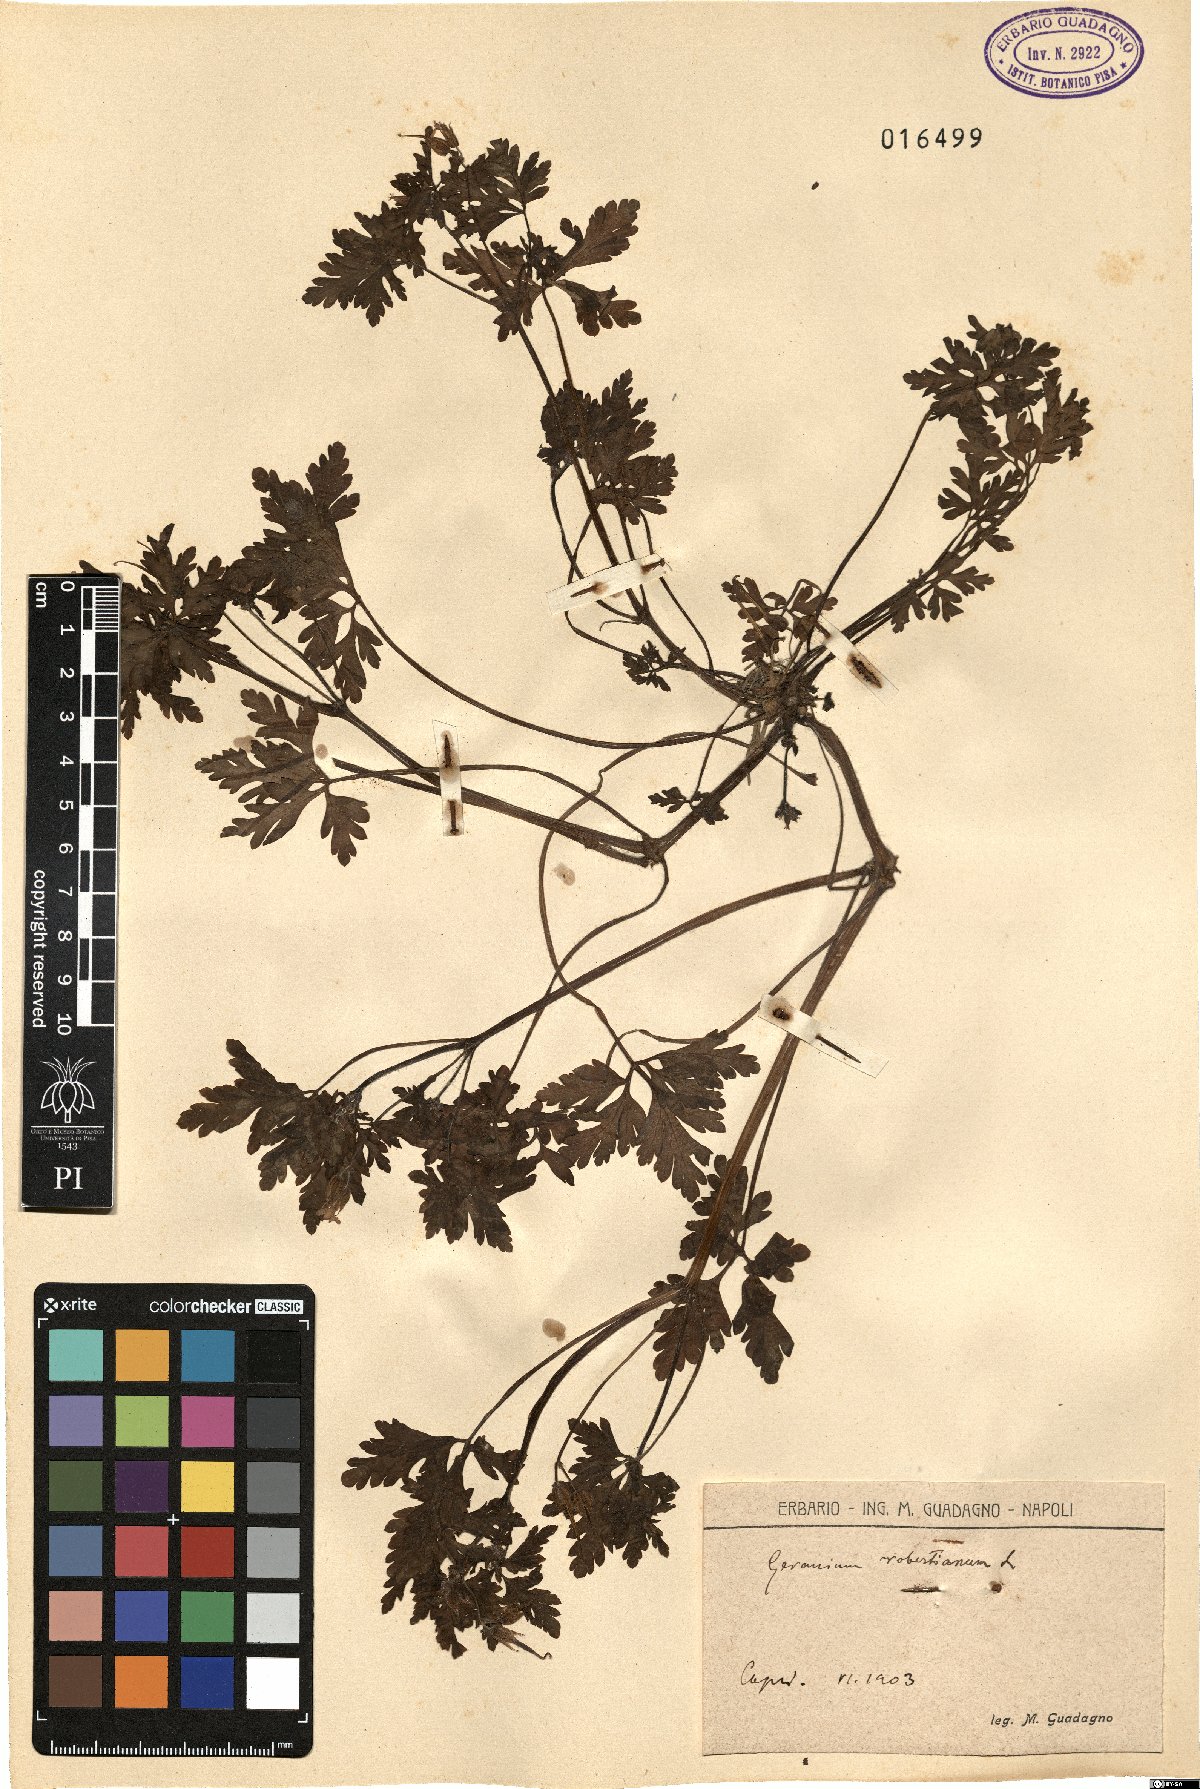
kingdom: Plantae
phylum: Tracheophyta
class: Magnoliopsida
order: Geraniales
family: Geraniaceae
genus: Geranium
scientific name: Geranium robertianum
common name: Herb-robert
